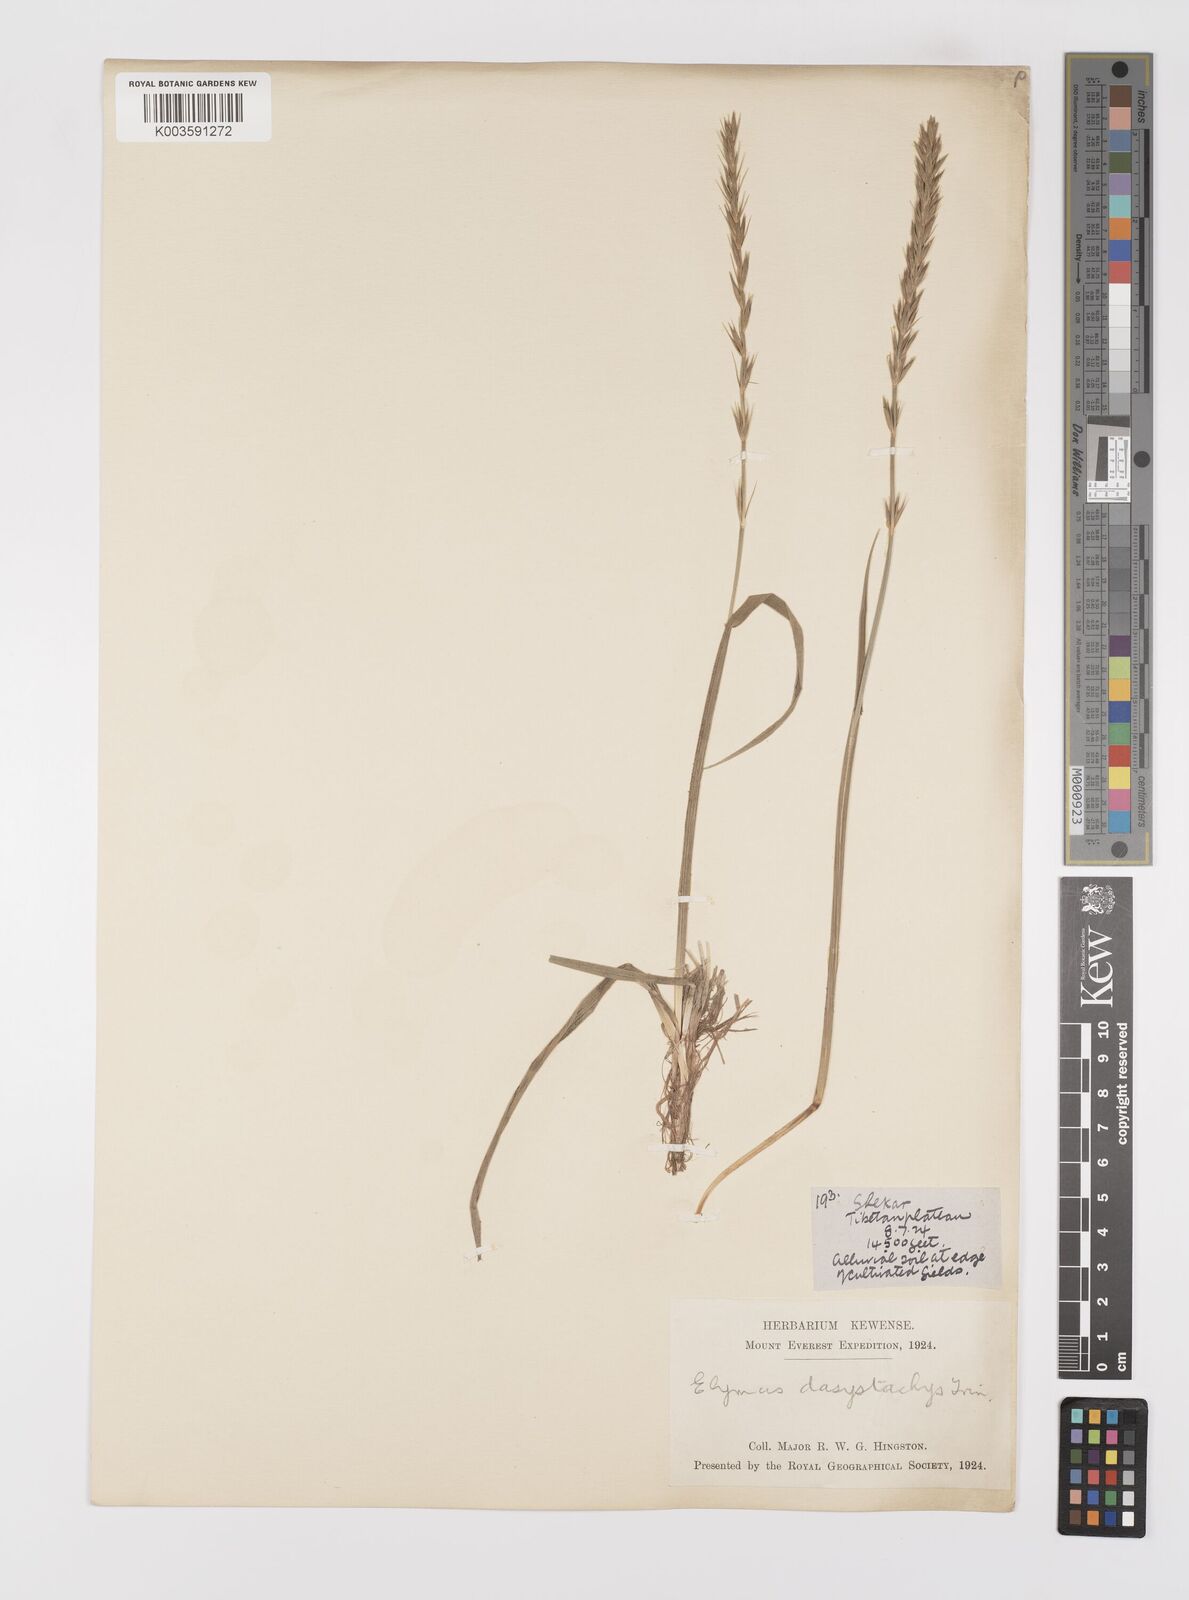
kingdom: Plantae
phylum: Tracheophyta
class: Liliopsida
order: Poales
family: Poaceae
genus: Leymus
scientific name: Leymus secalinus
